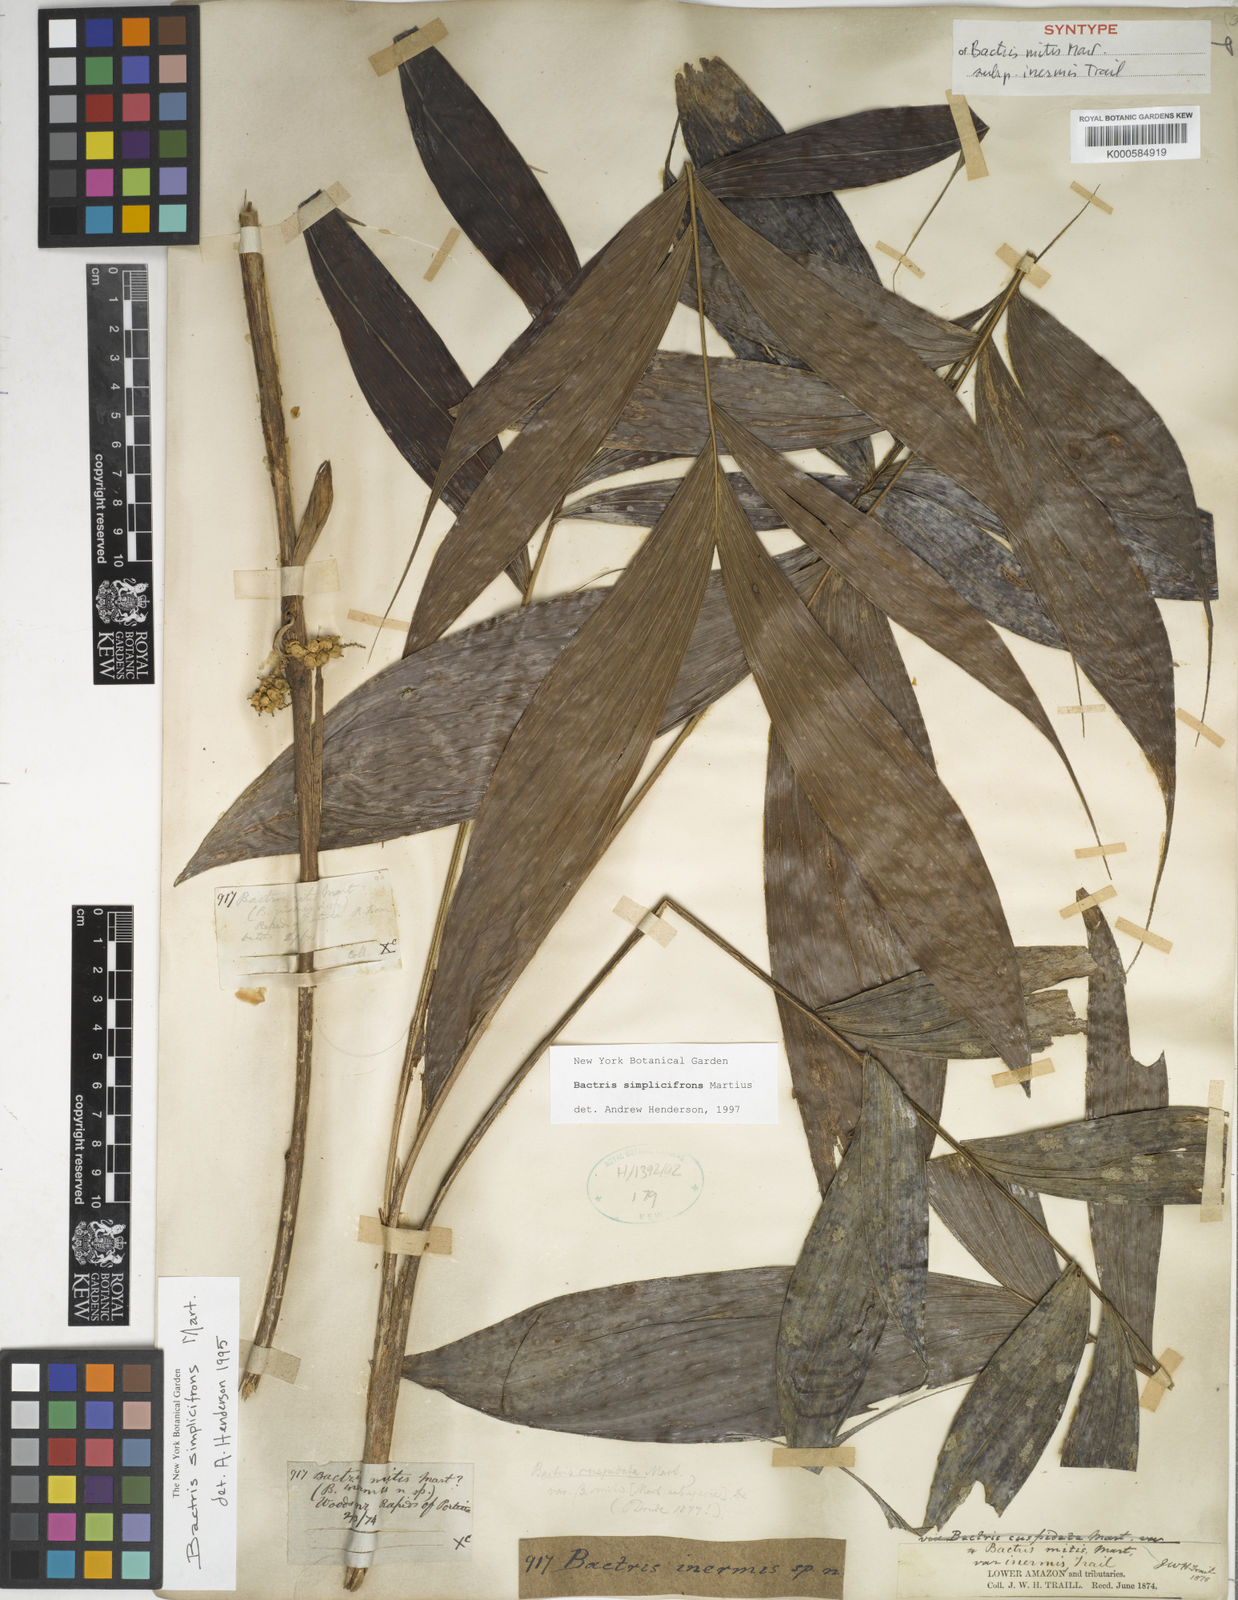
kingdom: Plantae
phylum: Tracheophyta
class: Liliopsida
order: Arecales
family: Arecaceae
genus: Bactris
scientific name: Bactris simplicifrons
